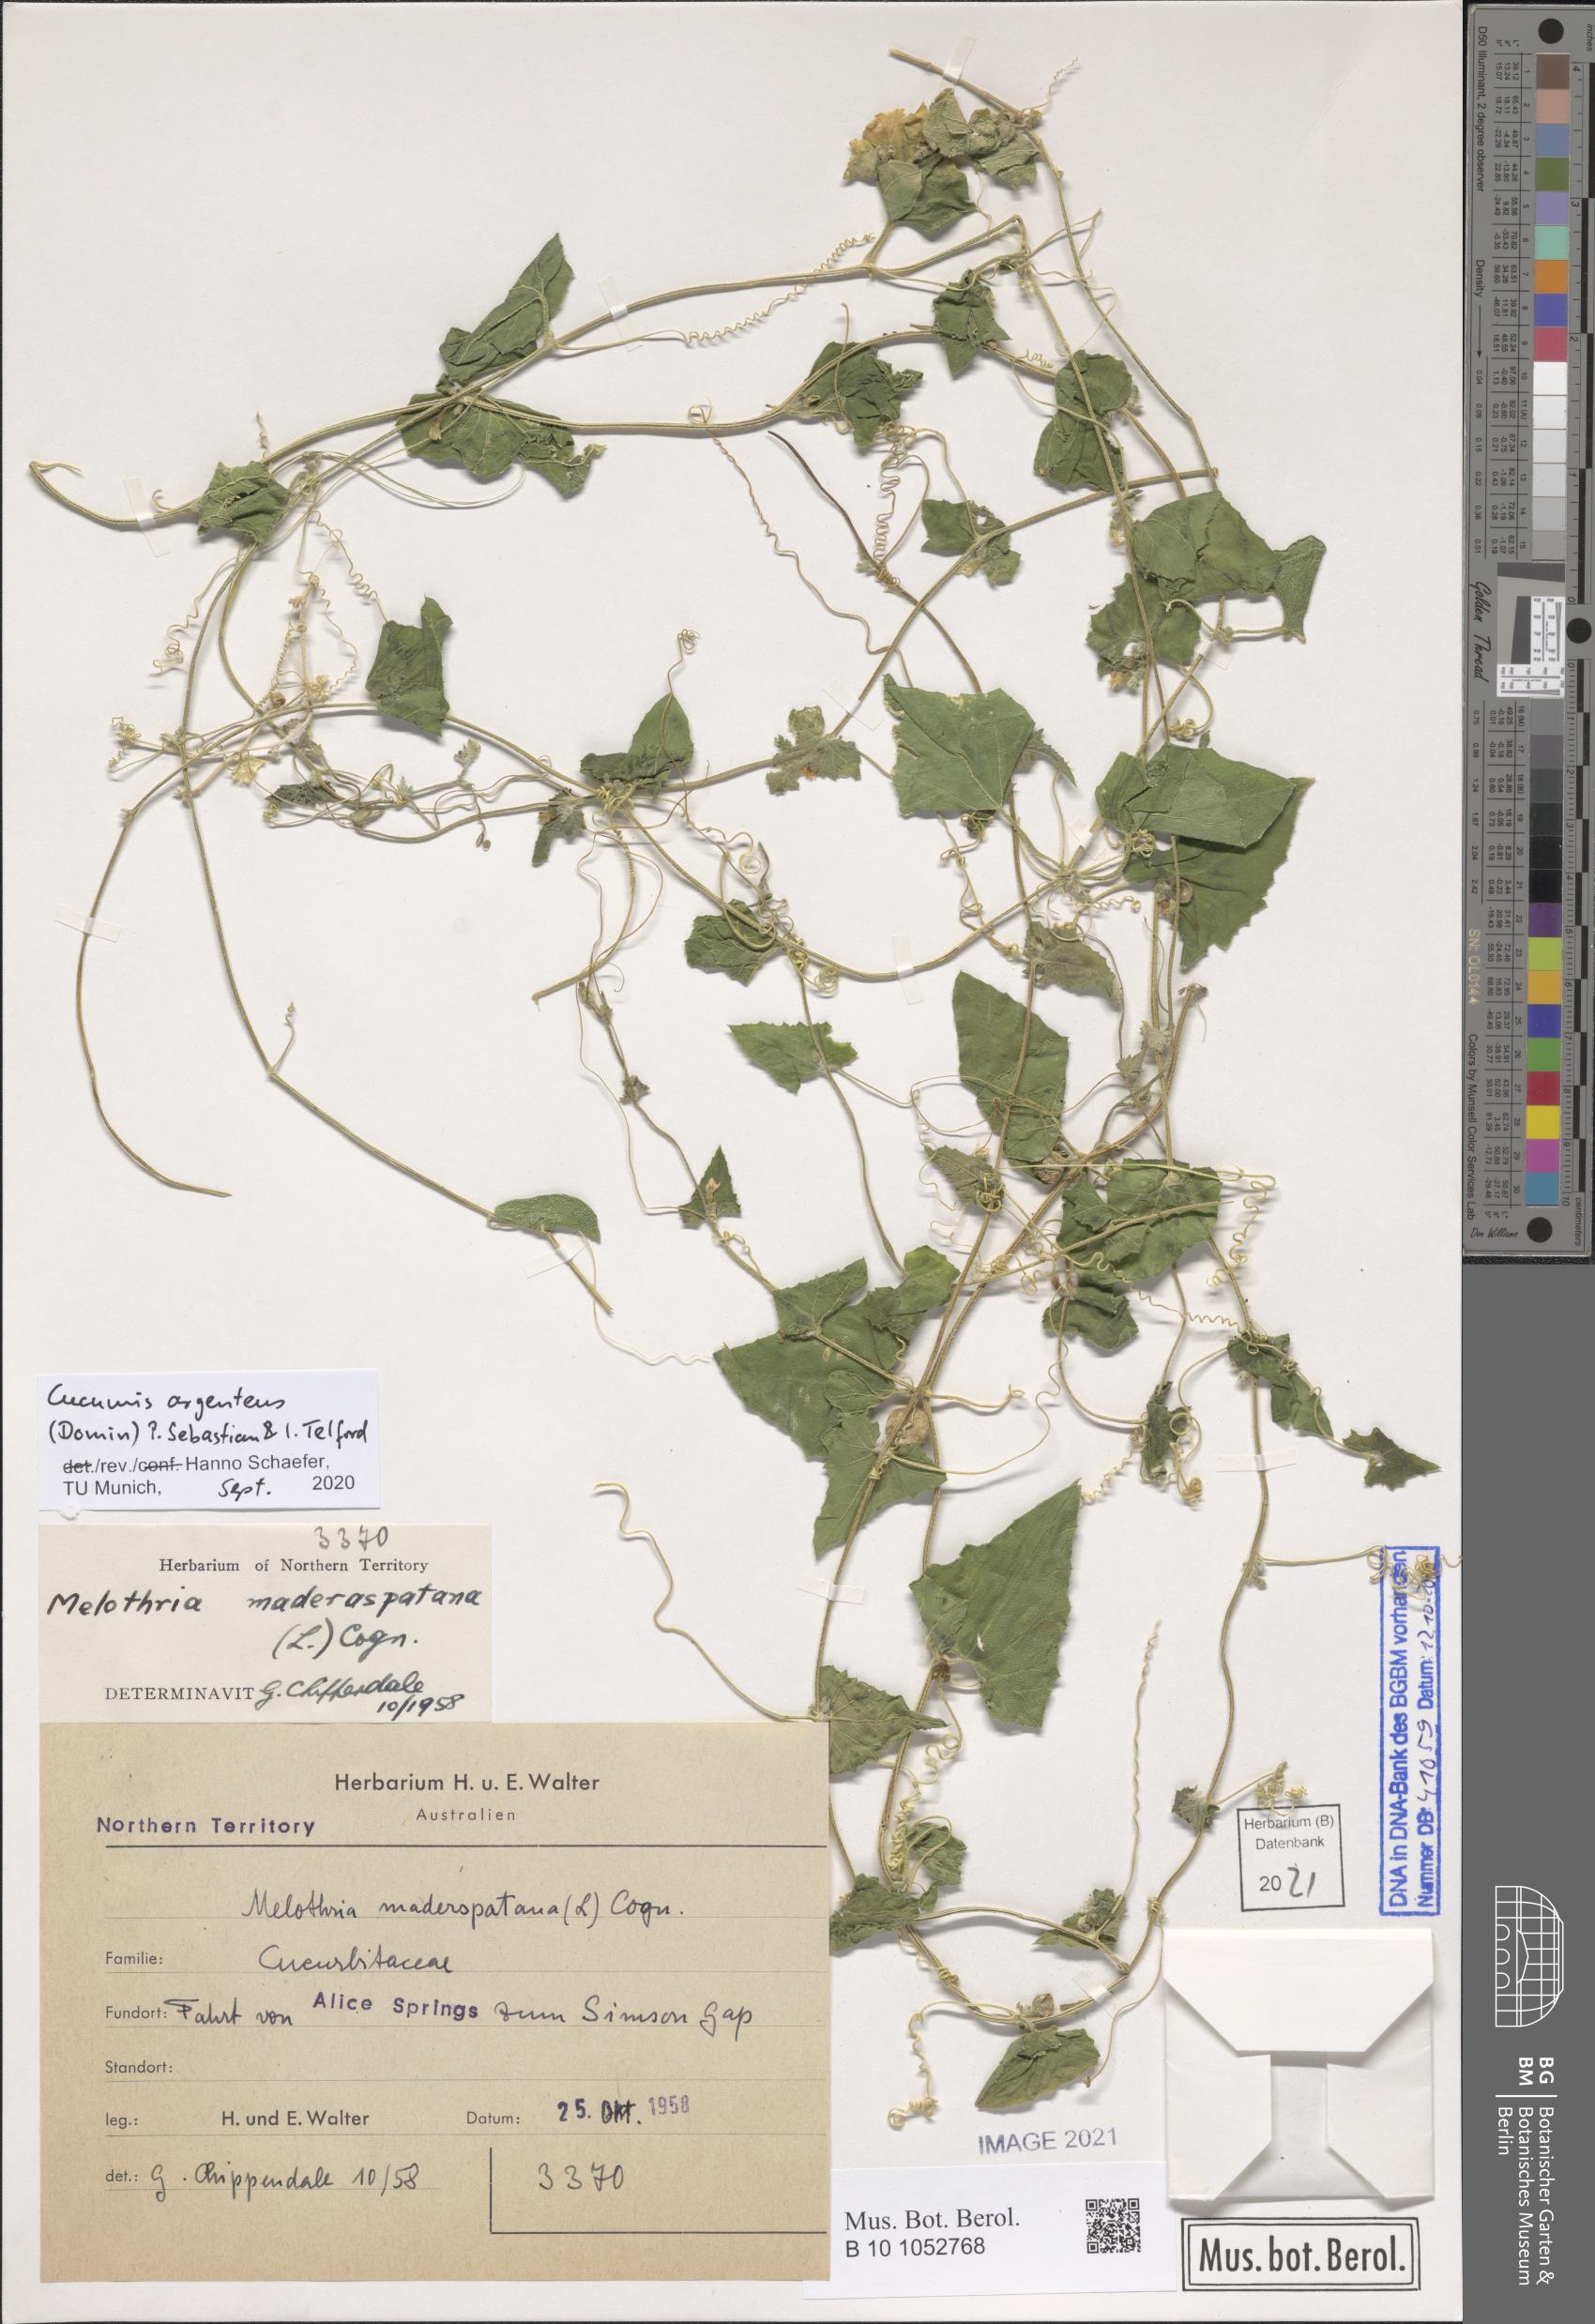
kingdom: Plantae
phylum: Tracheophyta
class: Magnoliopsida
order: Cucurbitales
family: Cucurbitaceae
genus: Cucumis
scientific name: Cucumis argenteus
